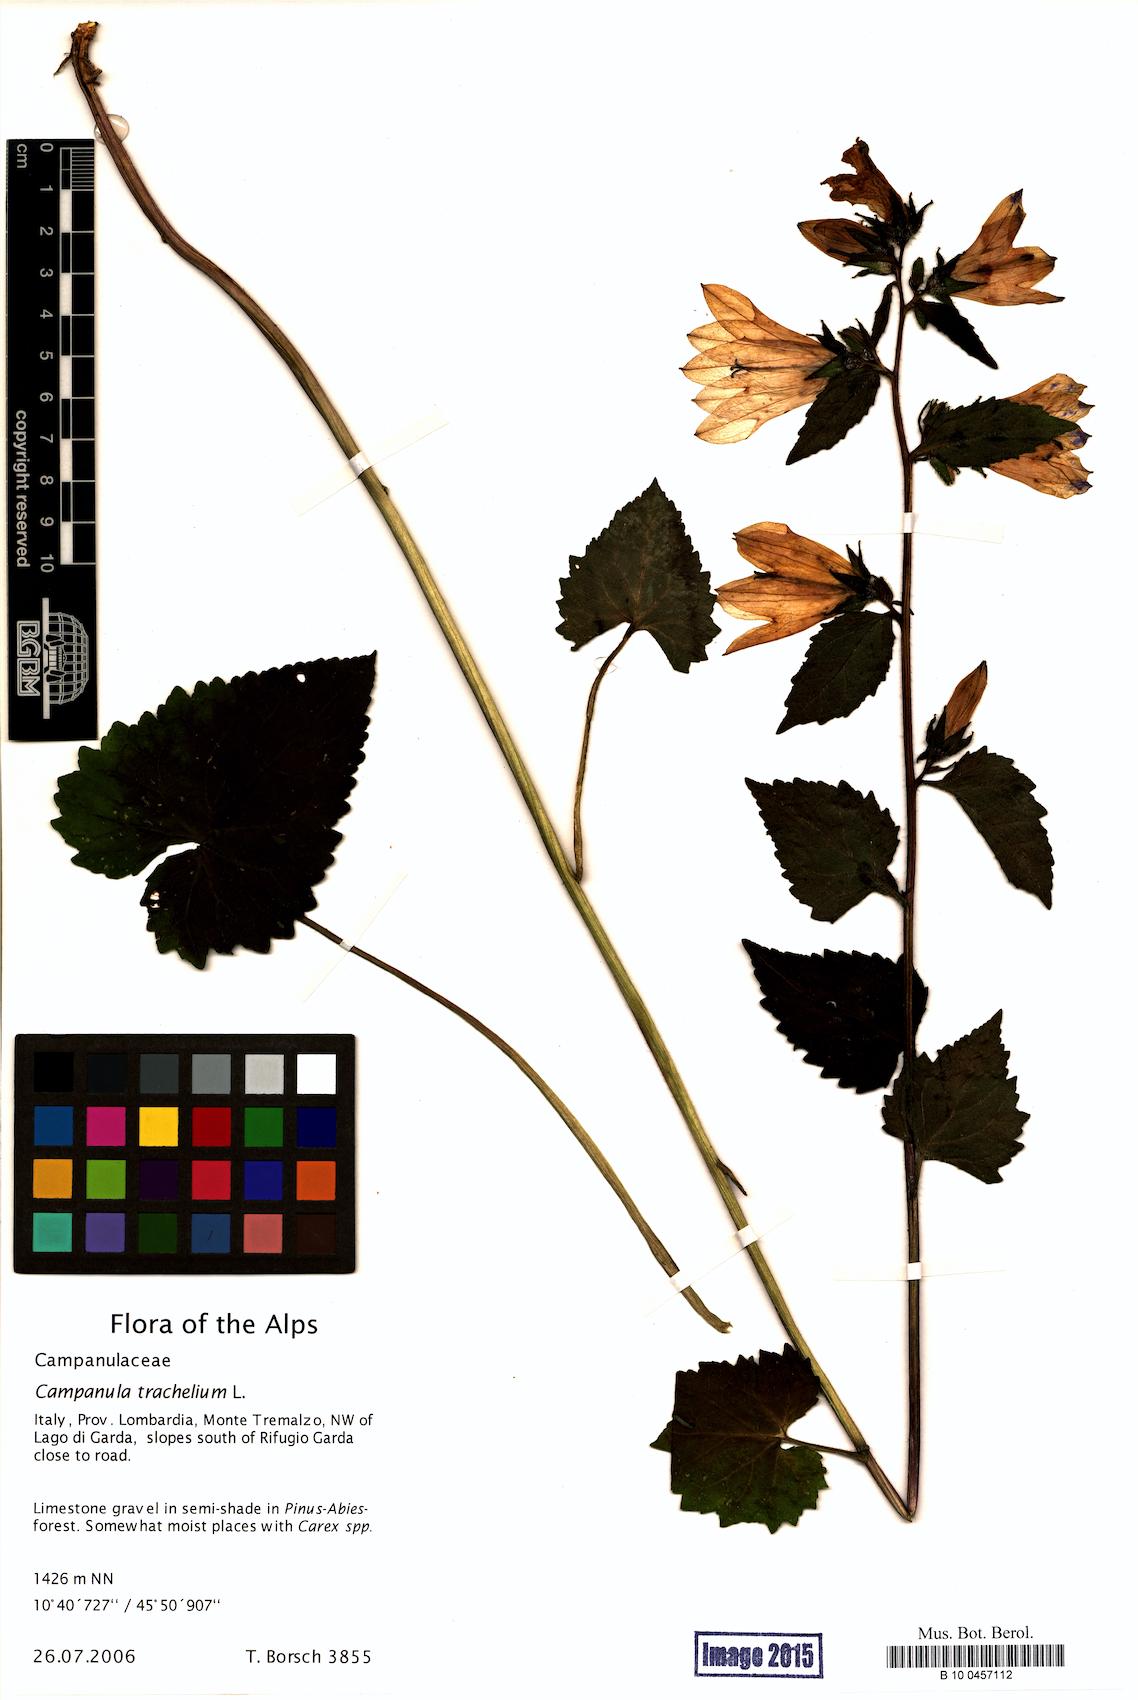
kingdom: Plantae
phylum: Tracheophyta
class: Magnoliopsida
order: Asterales
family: Campanulaceae
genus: Campanula
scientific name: Campanula trachelium
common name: Nettle-leaved bellflower
